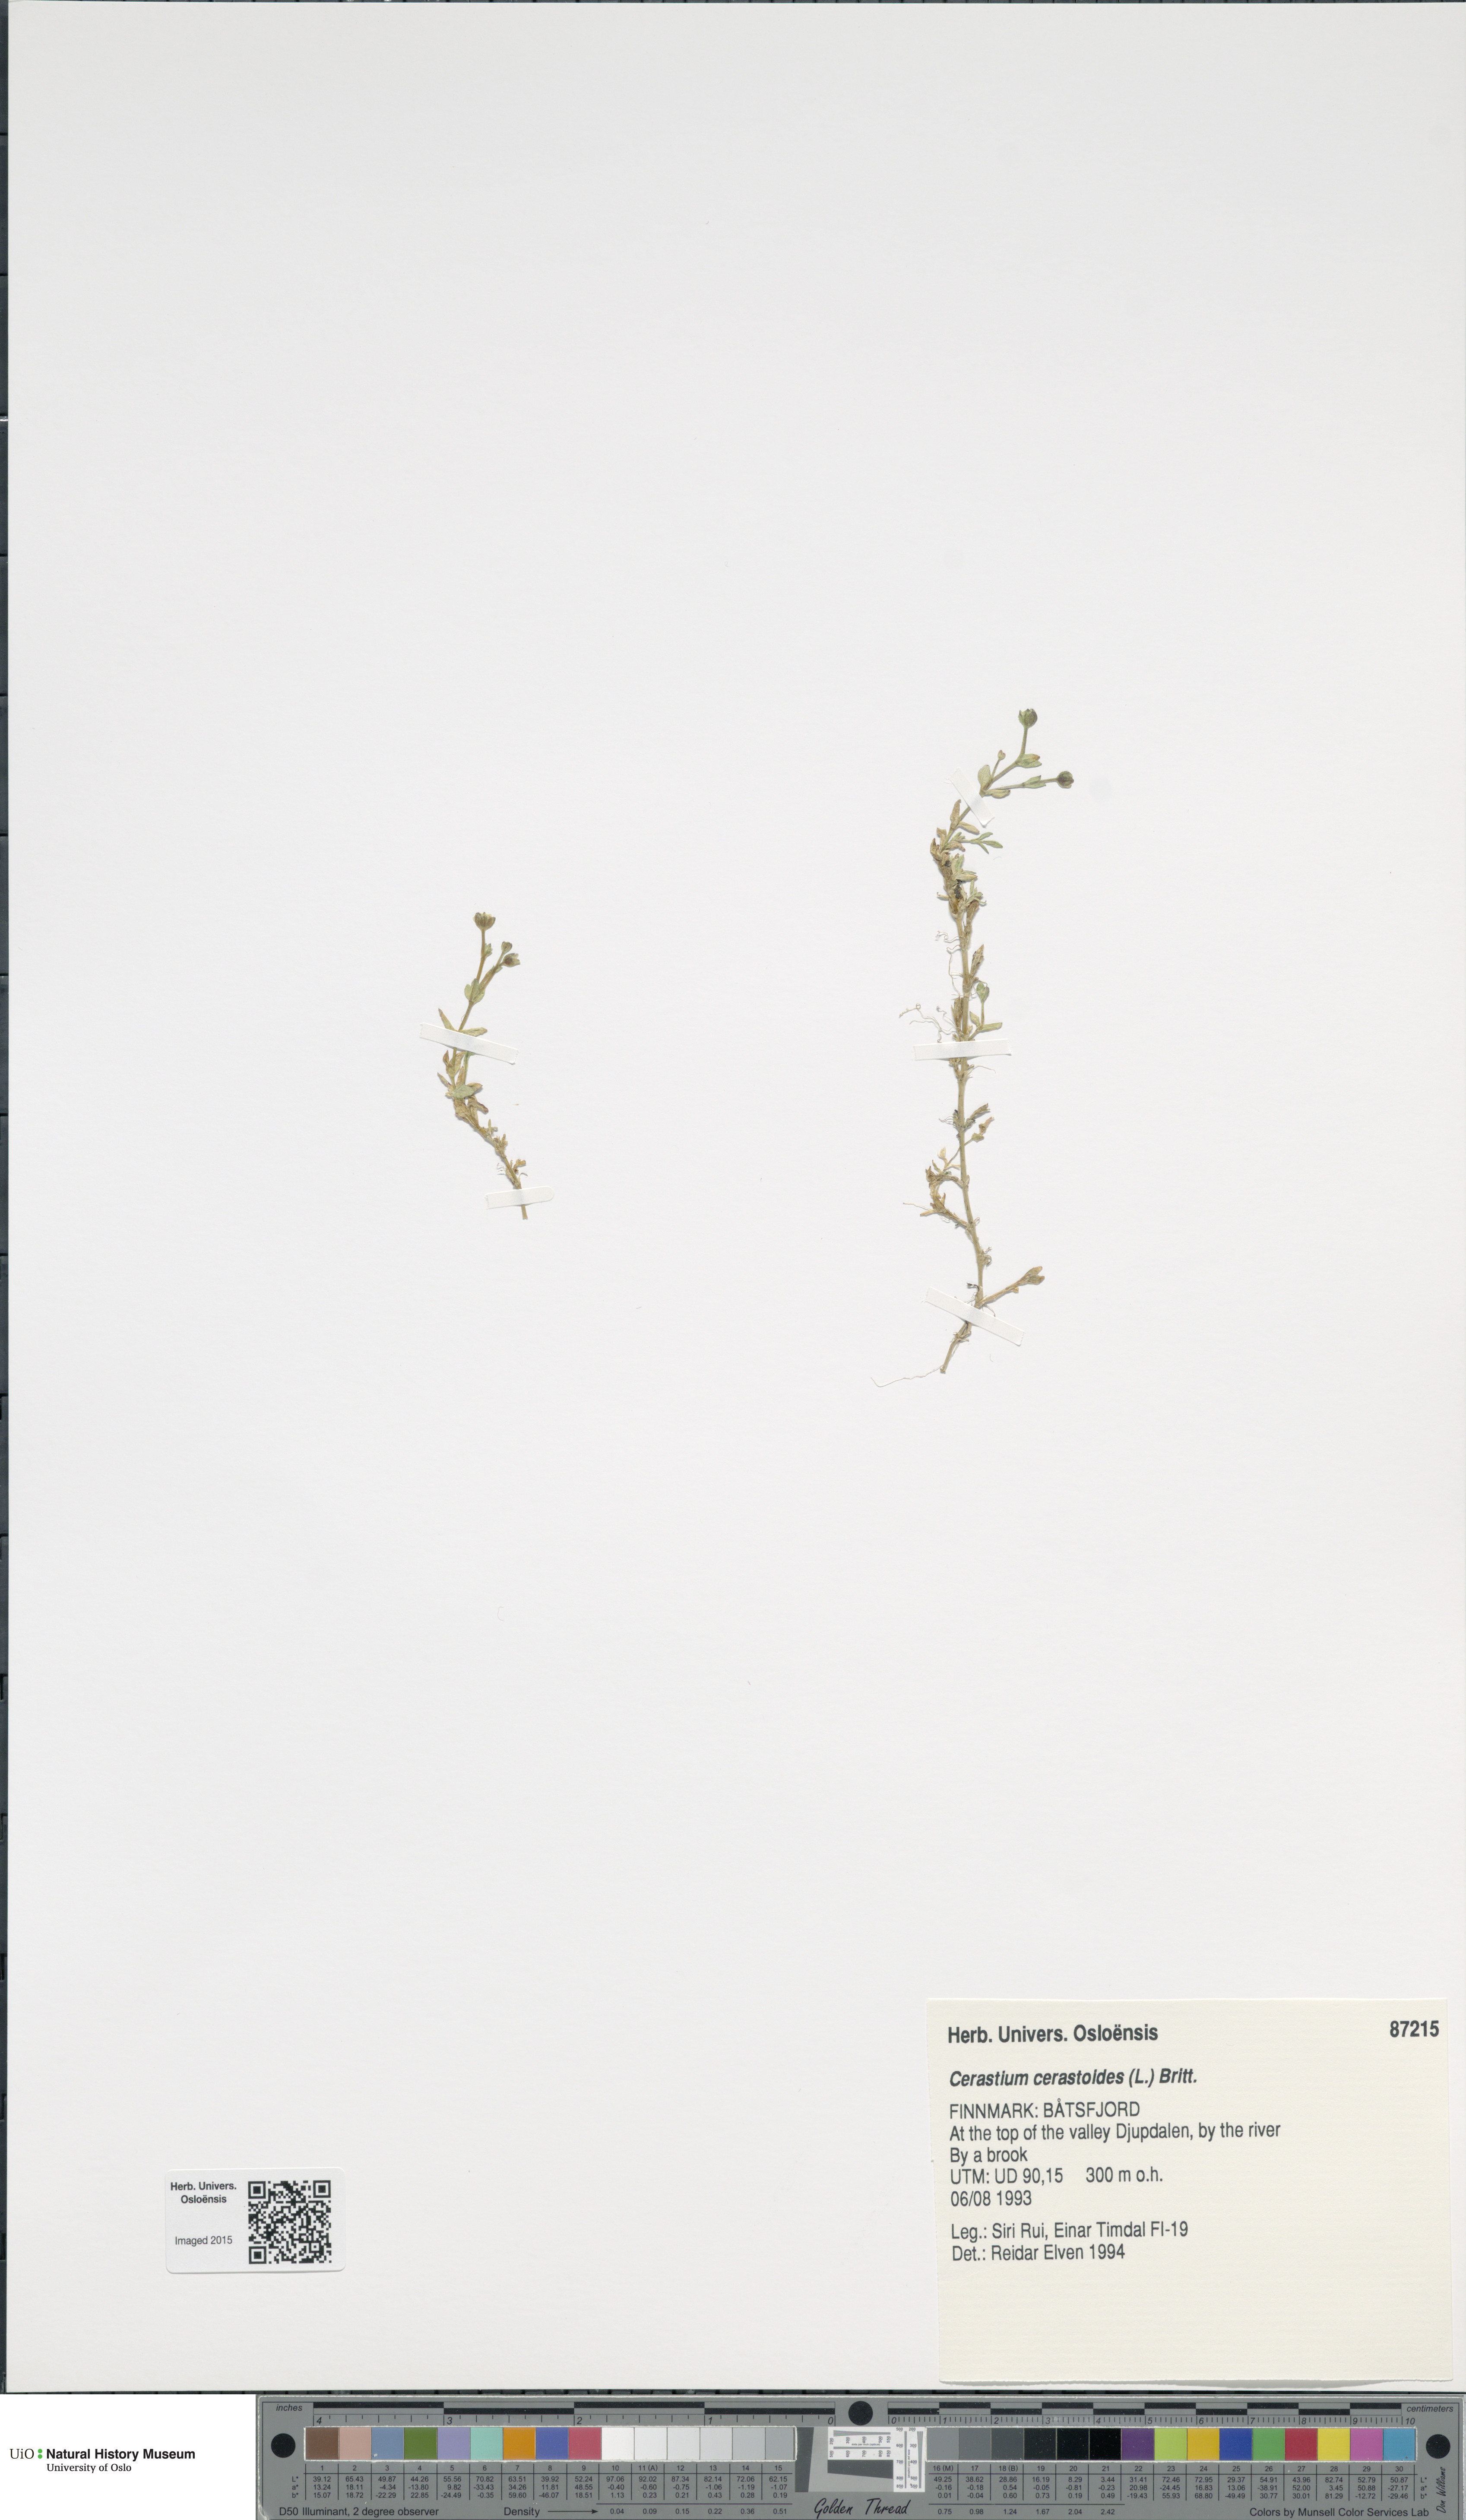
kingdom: Plantae
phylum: Tracheophyta
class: Magnoliopsida
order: Caryophyllales
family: Caryophyllaceae
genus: Dichodon
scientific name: Dichodon cerastoides
